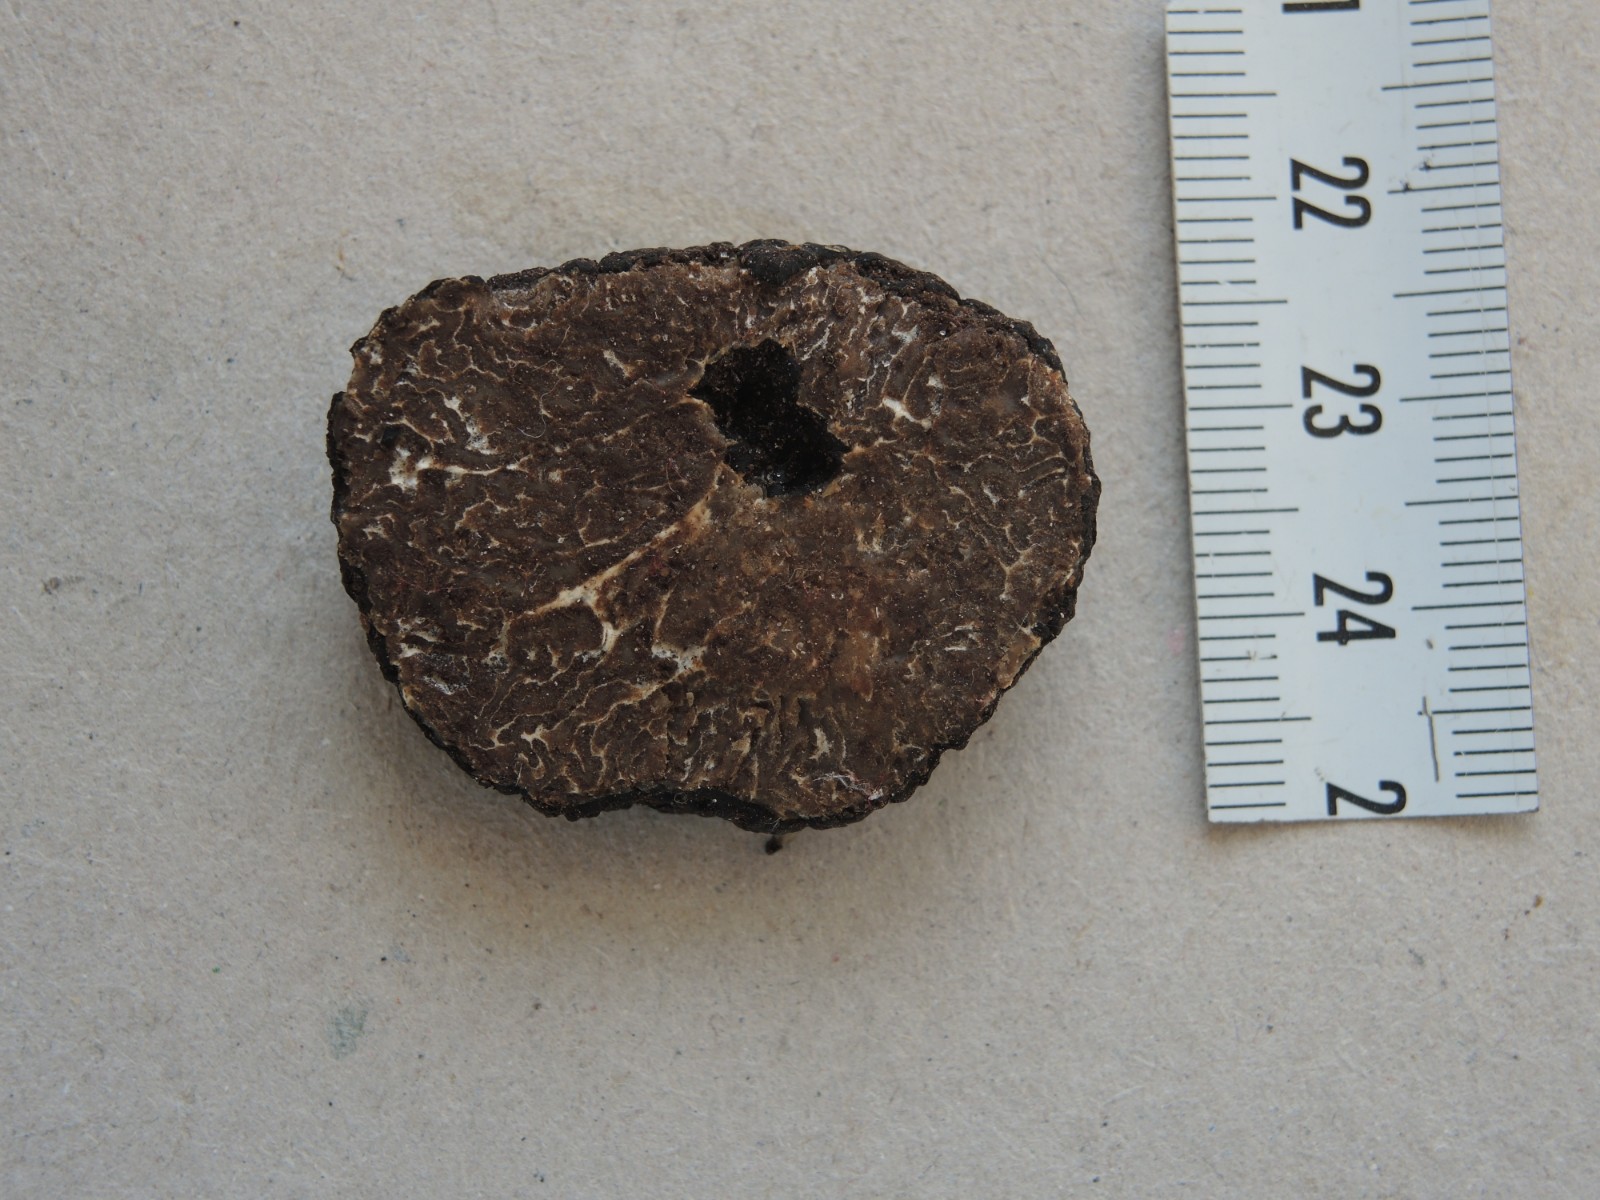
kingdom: Fungi
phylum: Ascomycota
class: Pezizomycetes
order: Pezizales
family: Tuberaceae
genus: Tuber
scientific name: Tuber mesentericum
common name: tjære-trøffel
